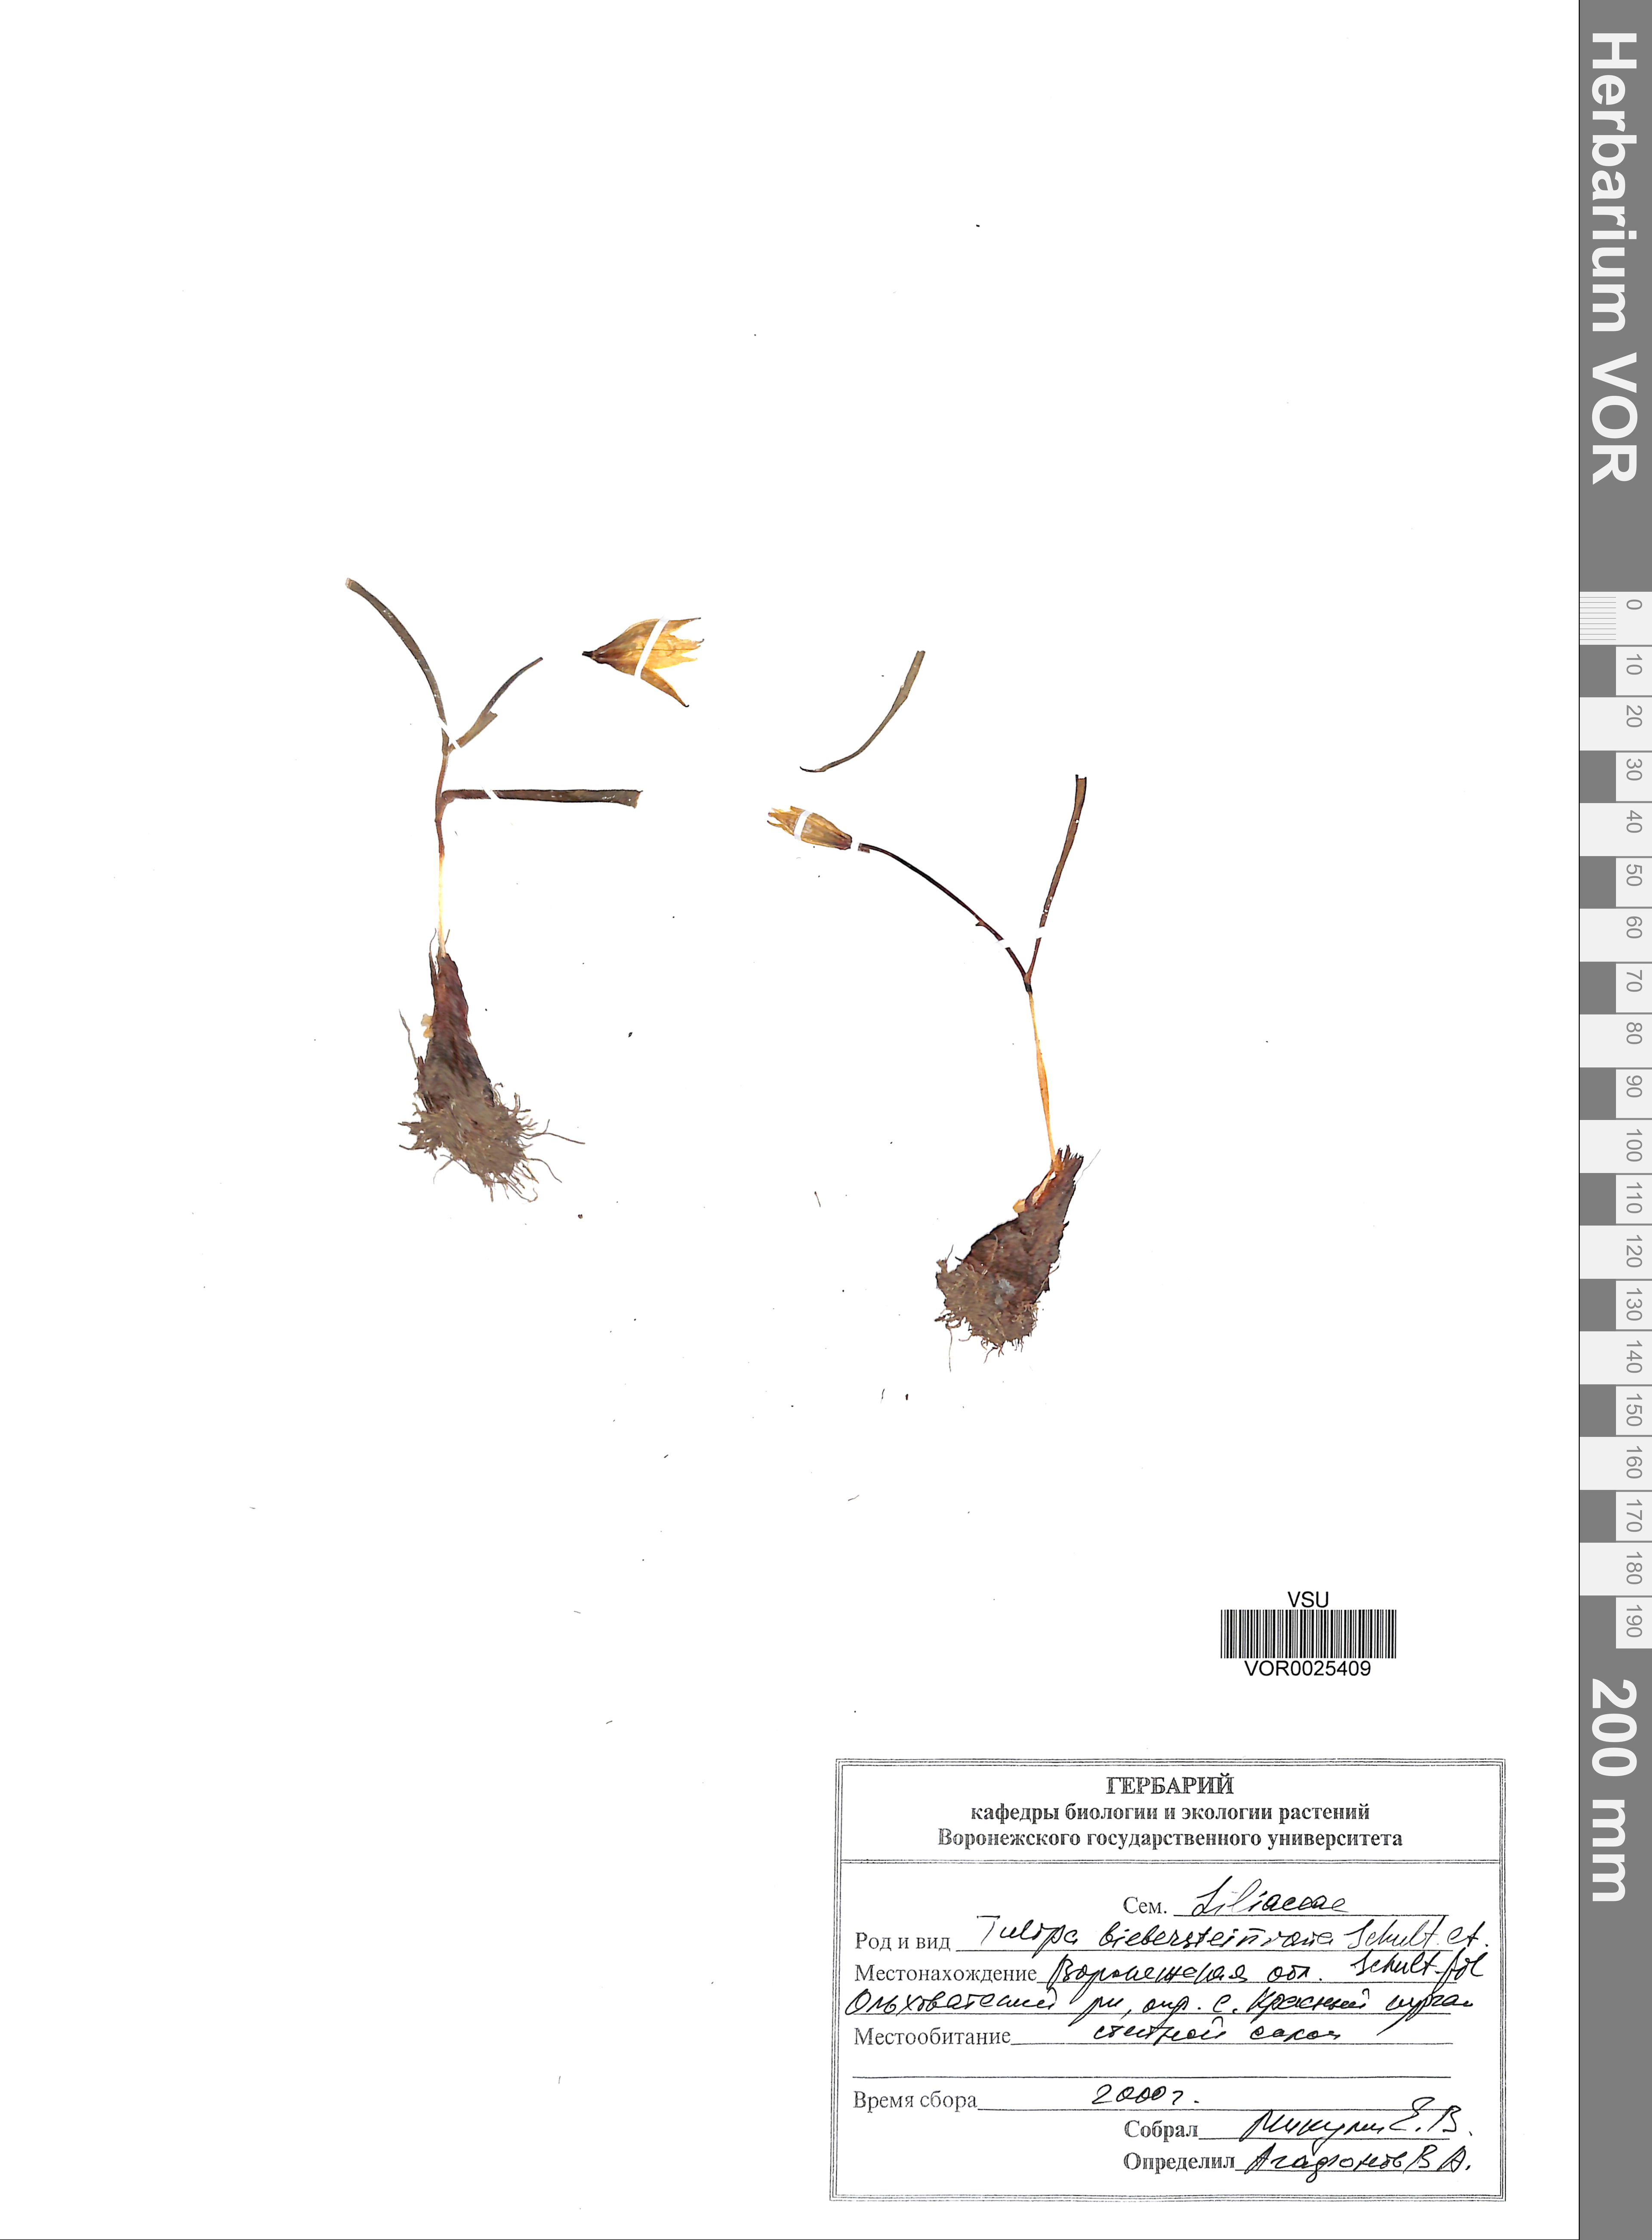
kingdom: Plantae
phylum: Tracheophyta
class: Liliopsida
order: Liliales
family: Liliaceae
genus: Tulipa
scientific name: Tulipa sylvestris
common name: Wild tulip
